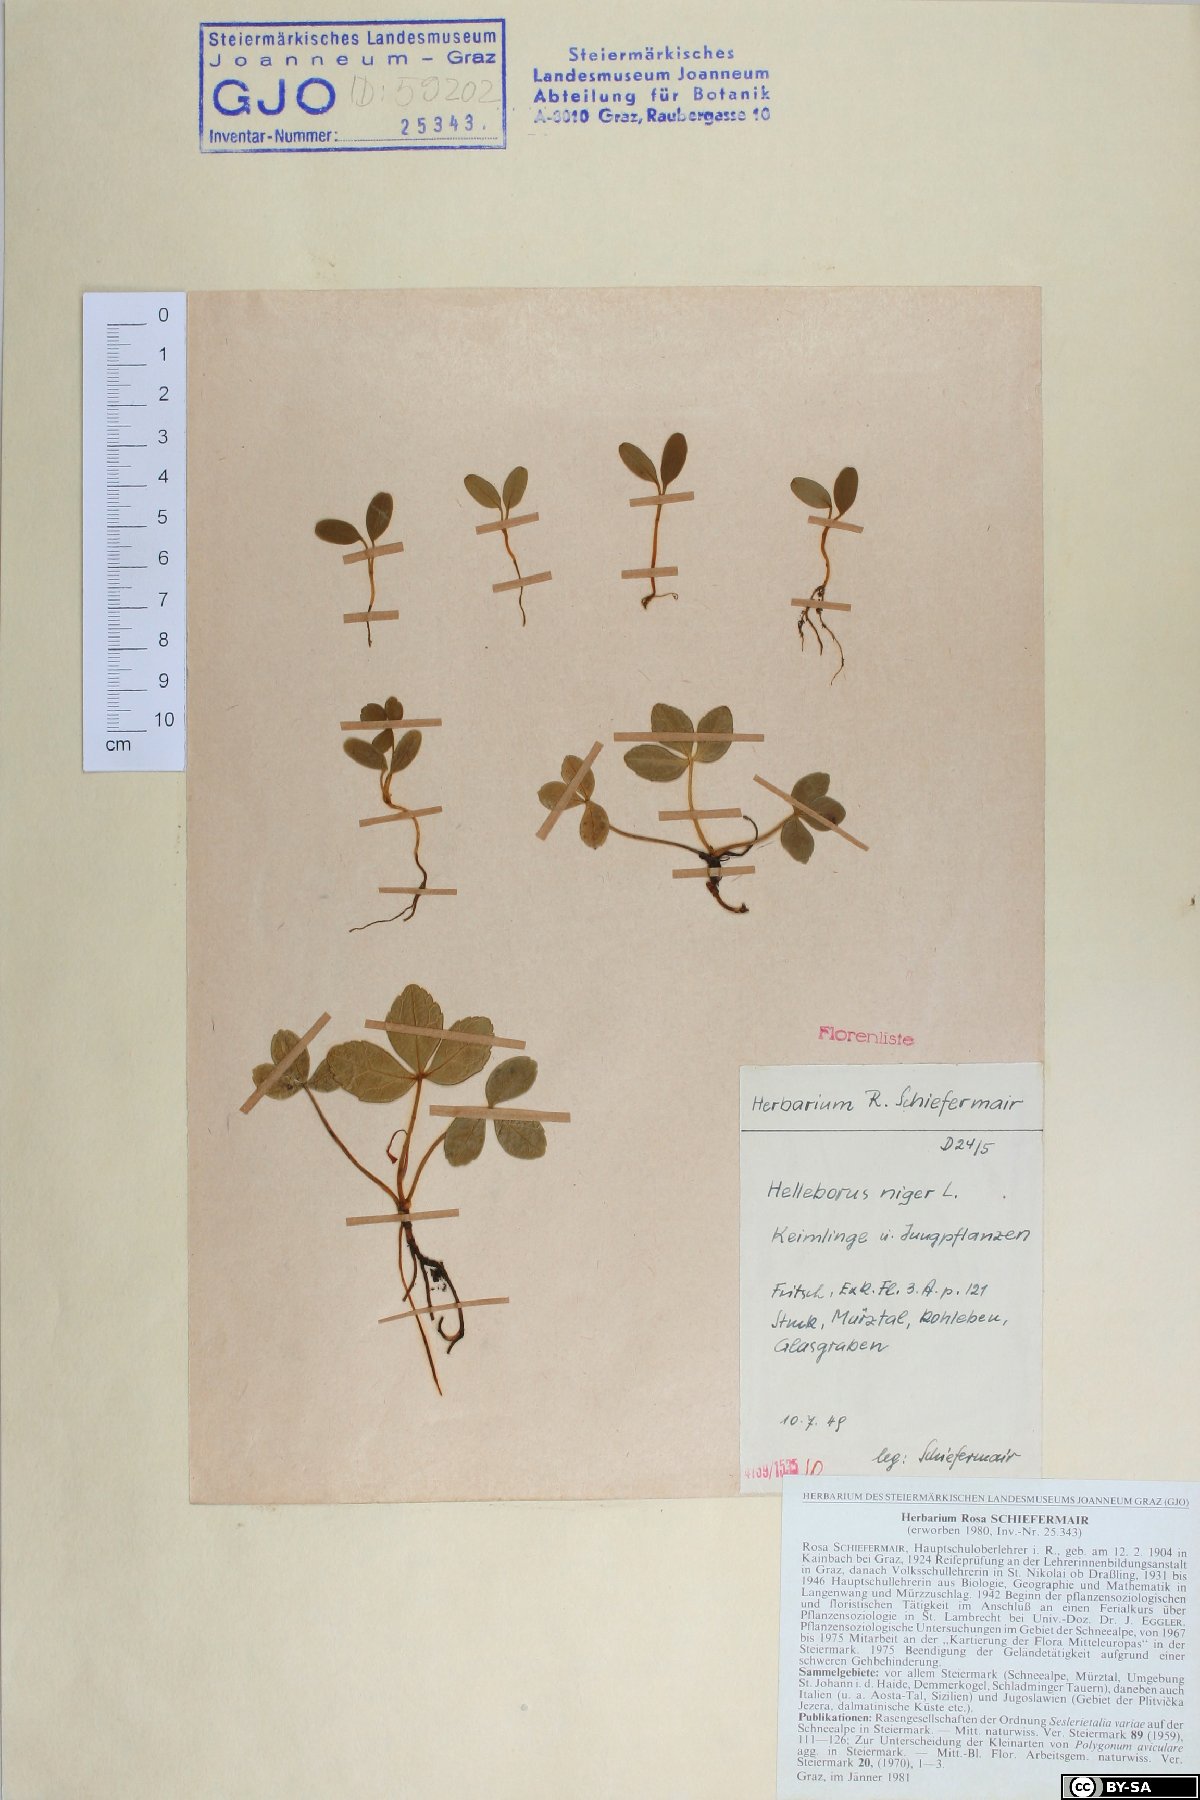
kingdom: Plantae
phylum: Tracheophyta
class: Magnoliopsida
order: Ranunculales
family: Ranunculaceae
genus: Helleborus
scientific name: Helleborus niger
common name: Black hellebore
